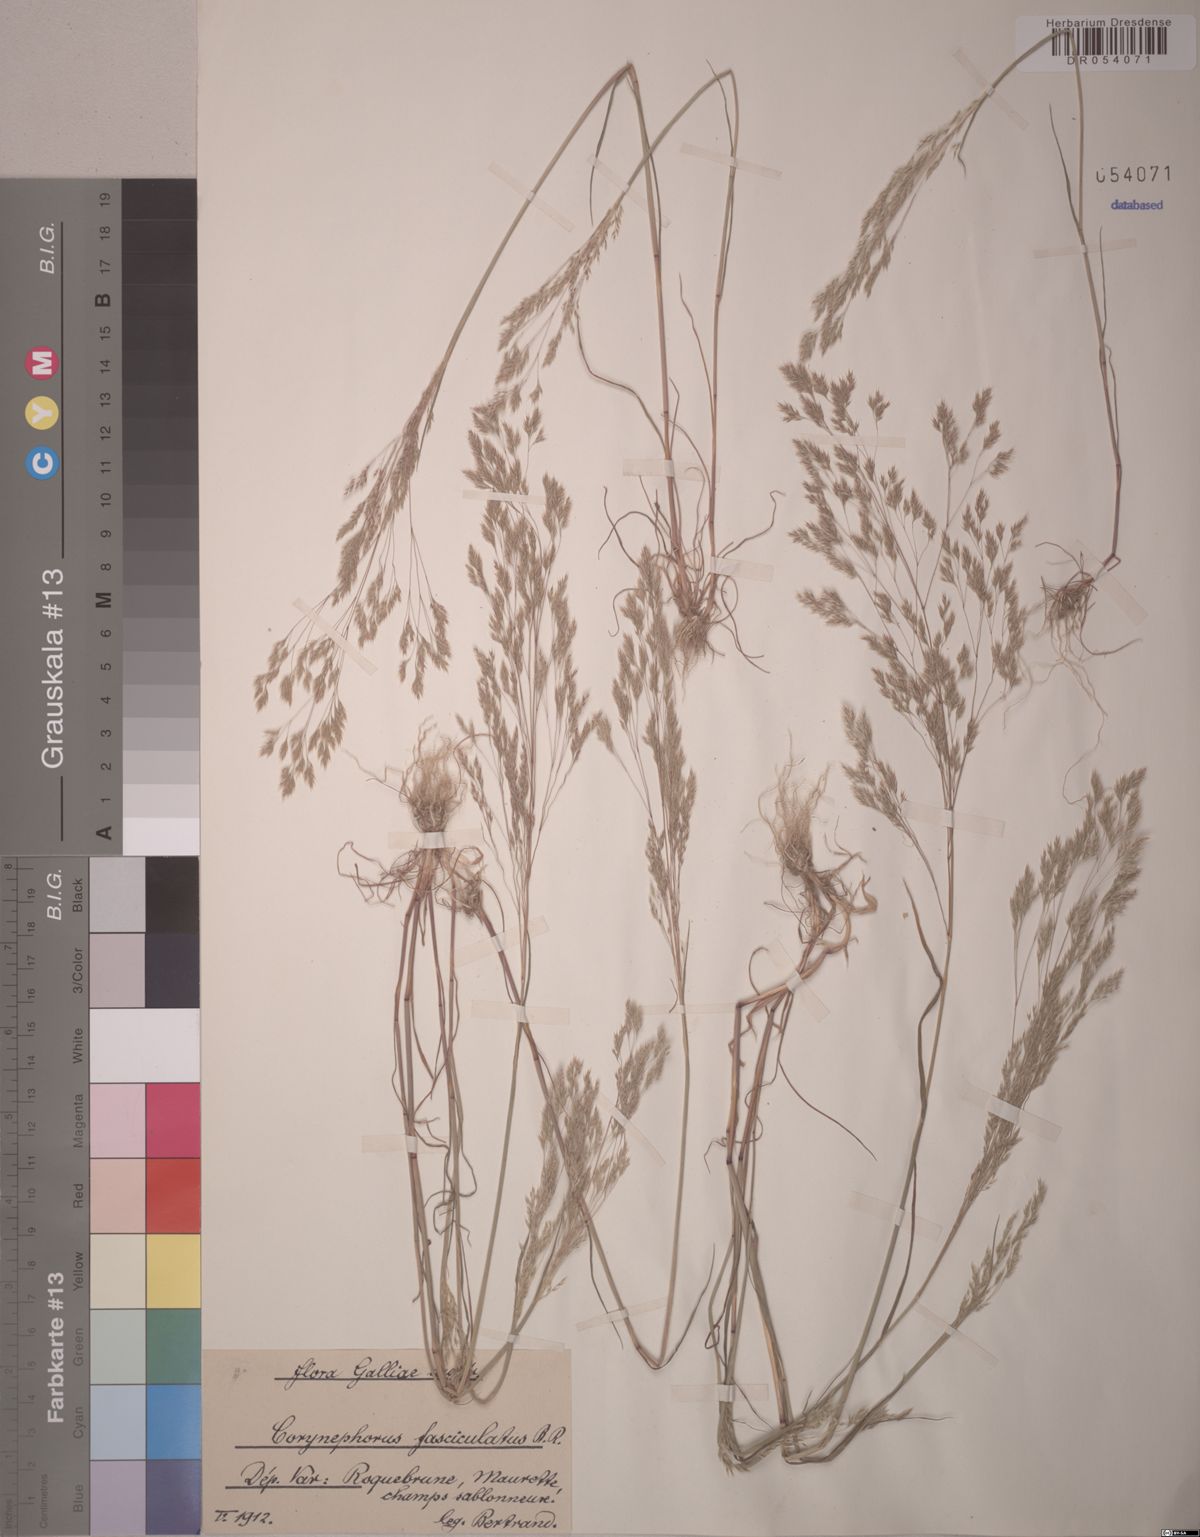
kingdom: Plantae
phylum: Tracheophyta
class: Liliopsida
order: Poales
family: Poaceae
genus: Corynephorus
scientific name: Corynephorus fasciculatus
